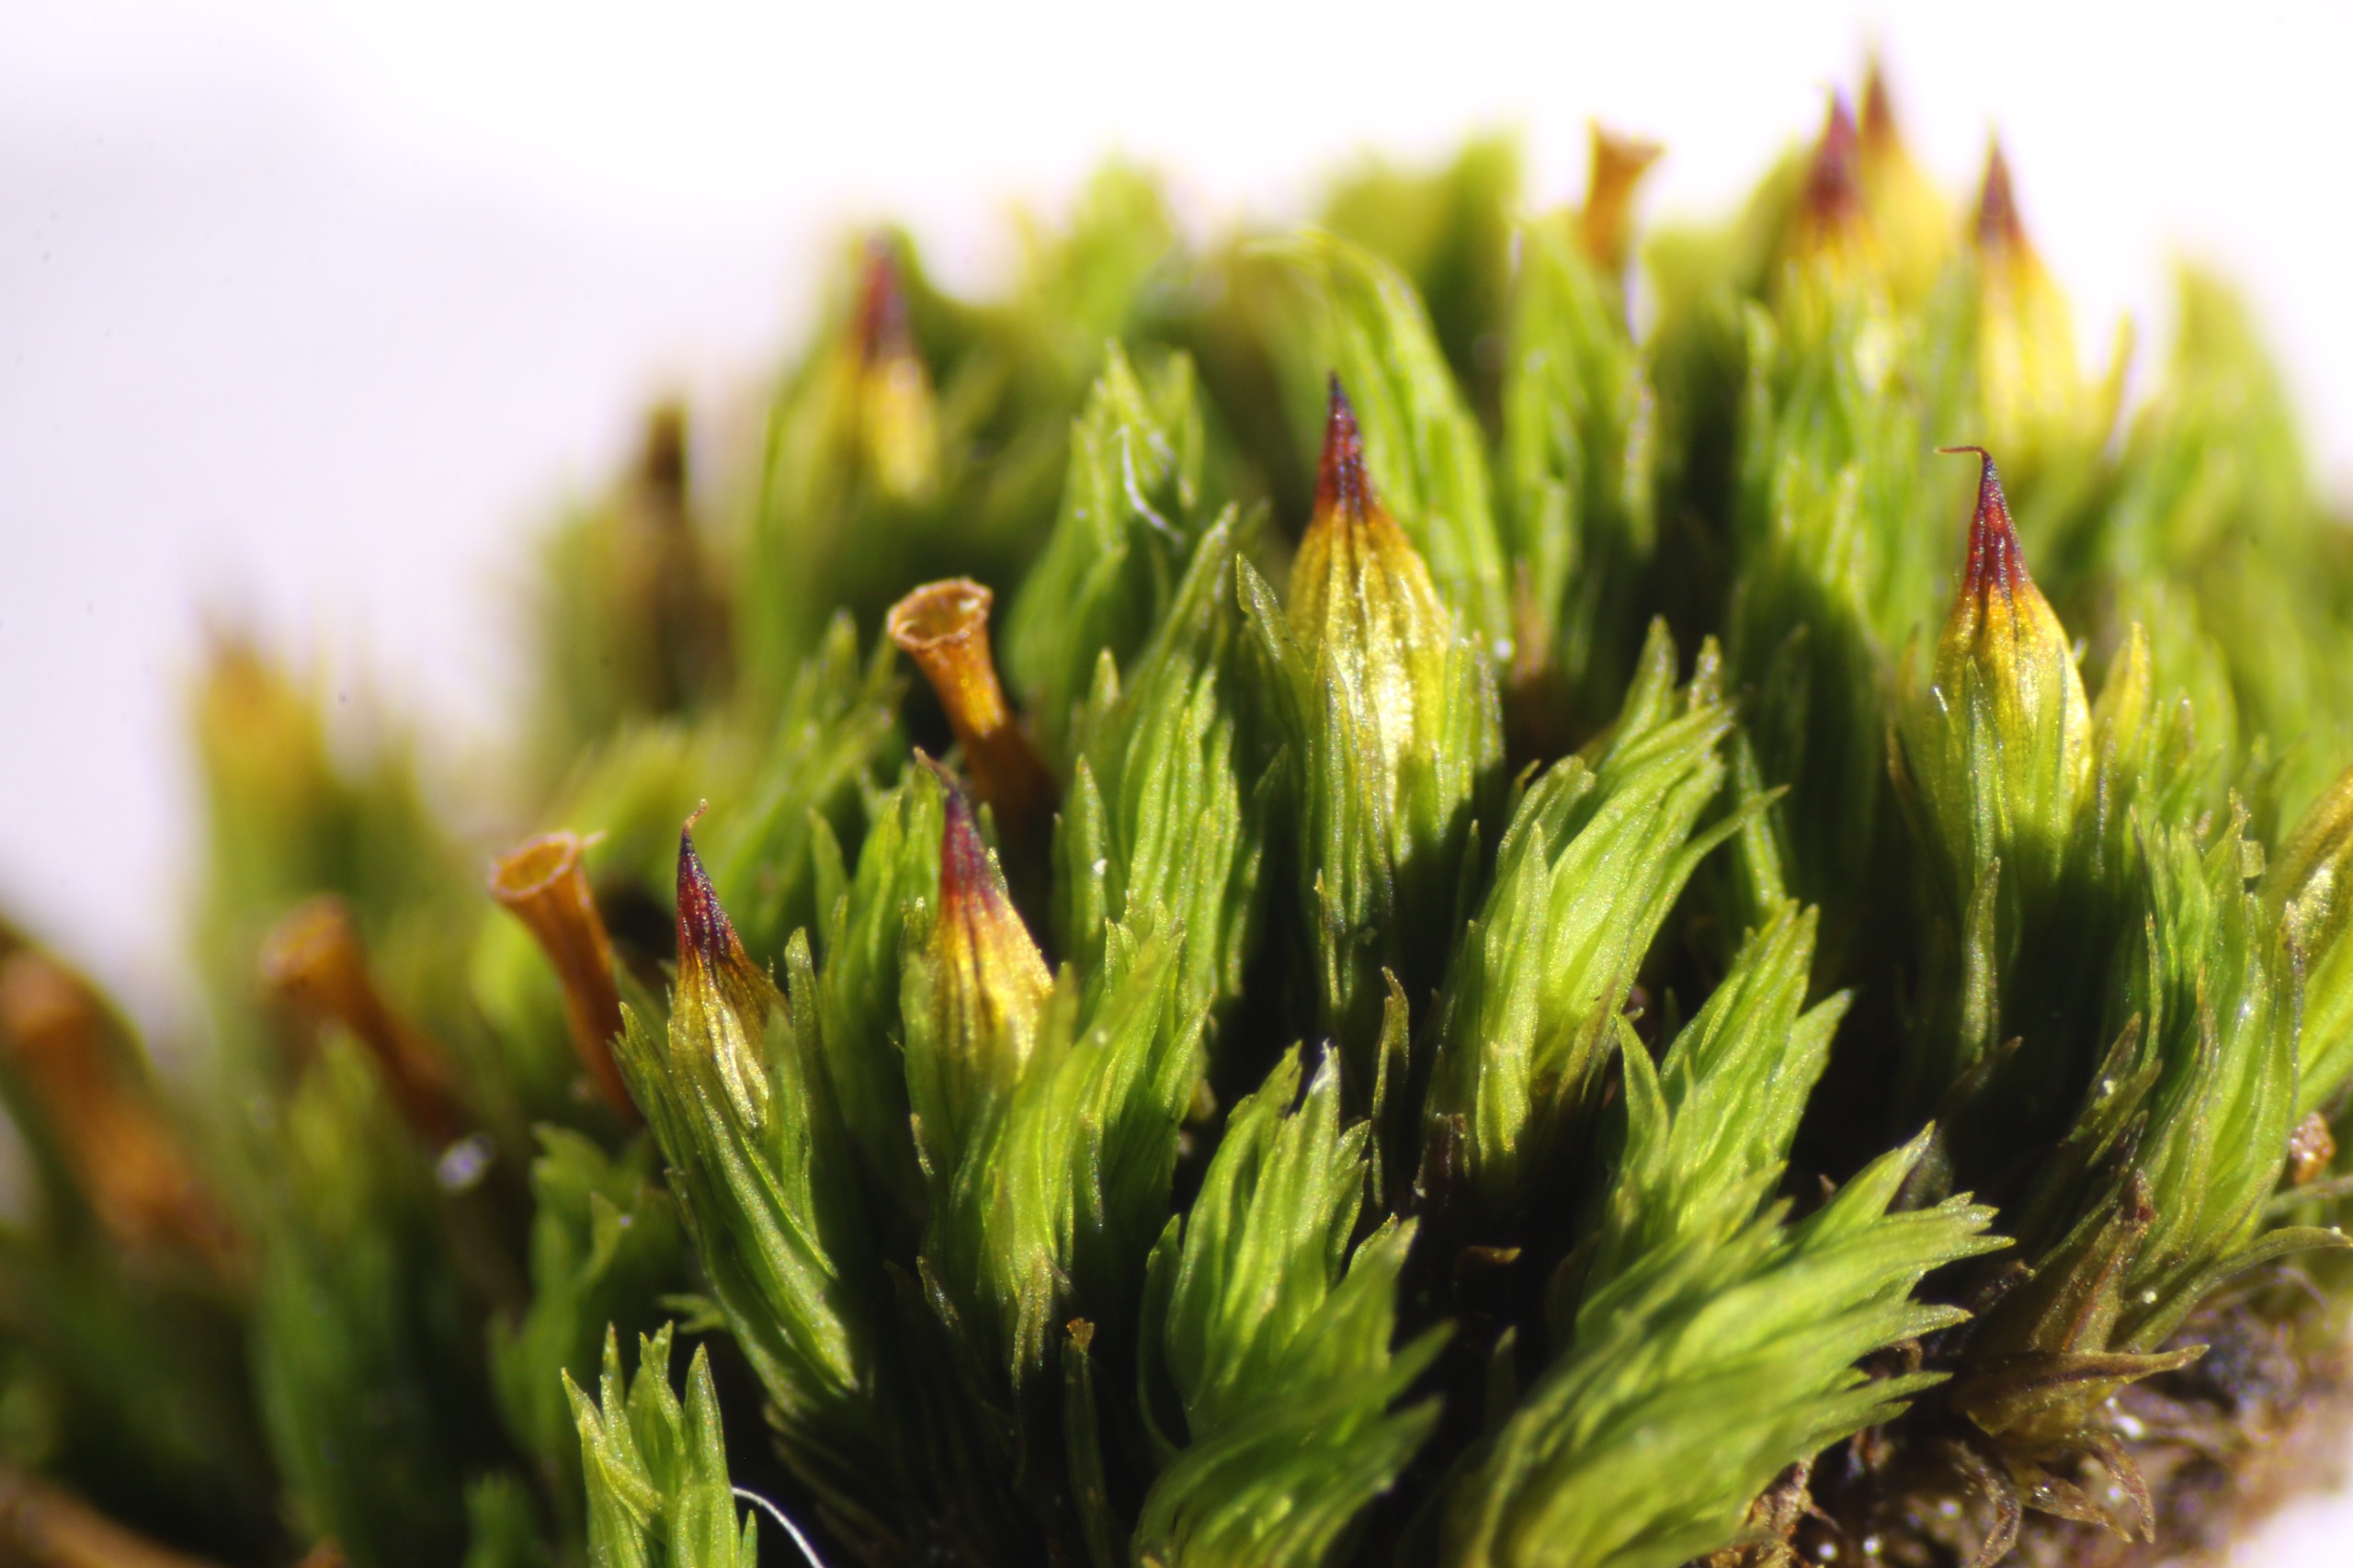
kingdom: Plantae
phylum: Bryophyta
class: Bryopsida
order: Orthotrichales
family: Orthotrichaceae
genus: Orthotrichum
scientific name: Orthotrichum stramineum
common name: Strågul furehætte
